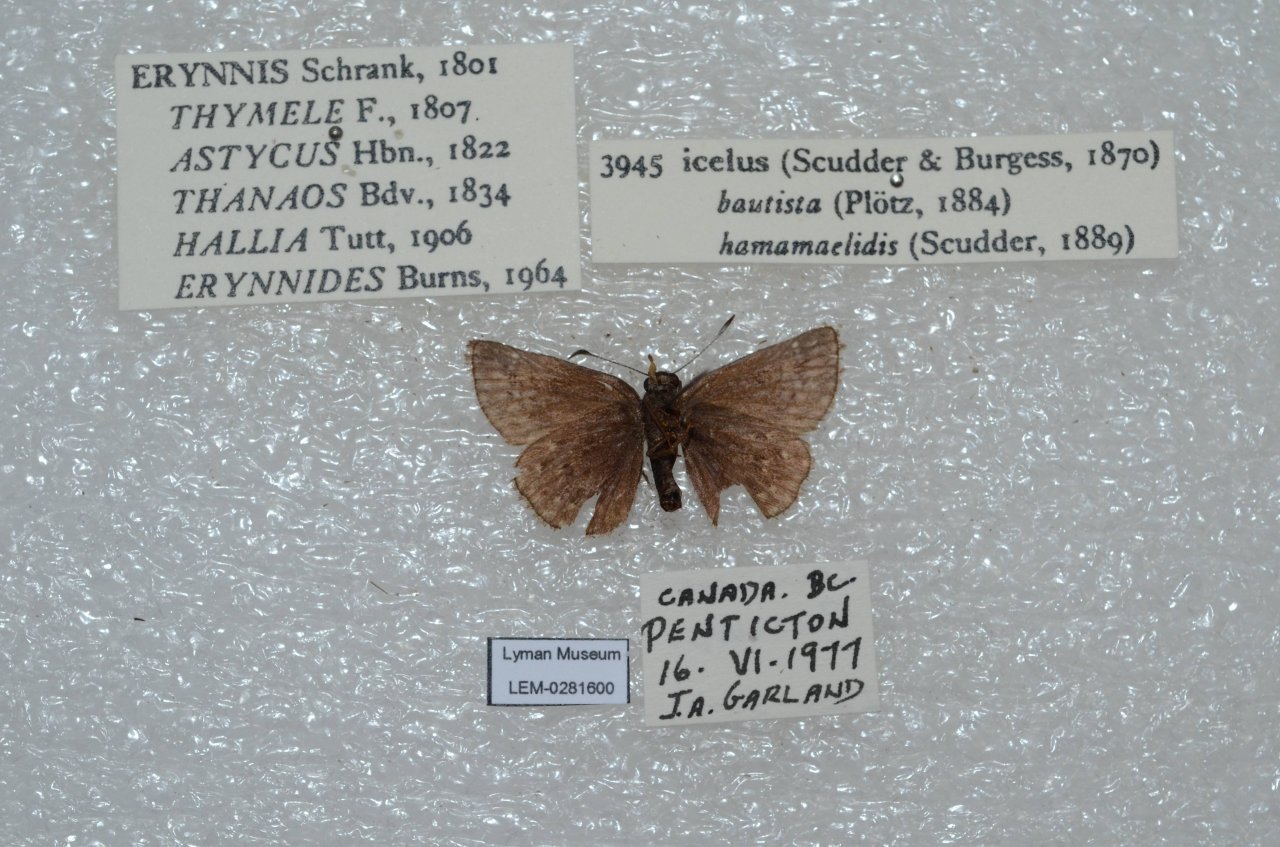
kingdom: Animalia
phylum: Arthropoda
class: Insecta
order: Lepidoptera
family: Hesperiidae
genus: Erynnis
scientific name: Erynnis icelus
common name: Dreamy Duskywing
